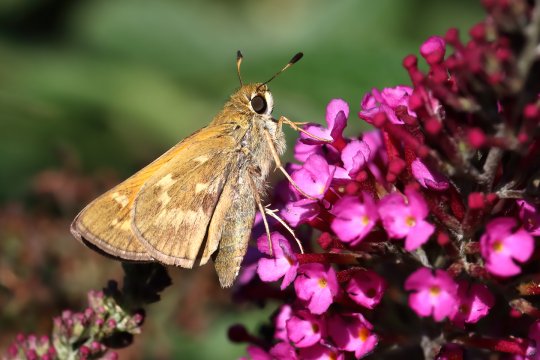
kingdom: Animalia
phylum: Arthropoda
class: Insecta
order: Lepidoptera
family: Hesperiidae
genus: Atalopedes
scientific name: Atalopedes campestris
